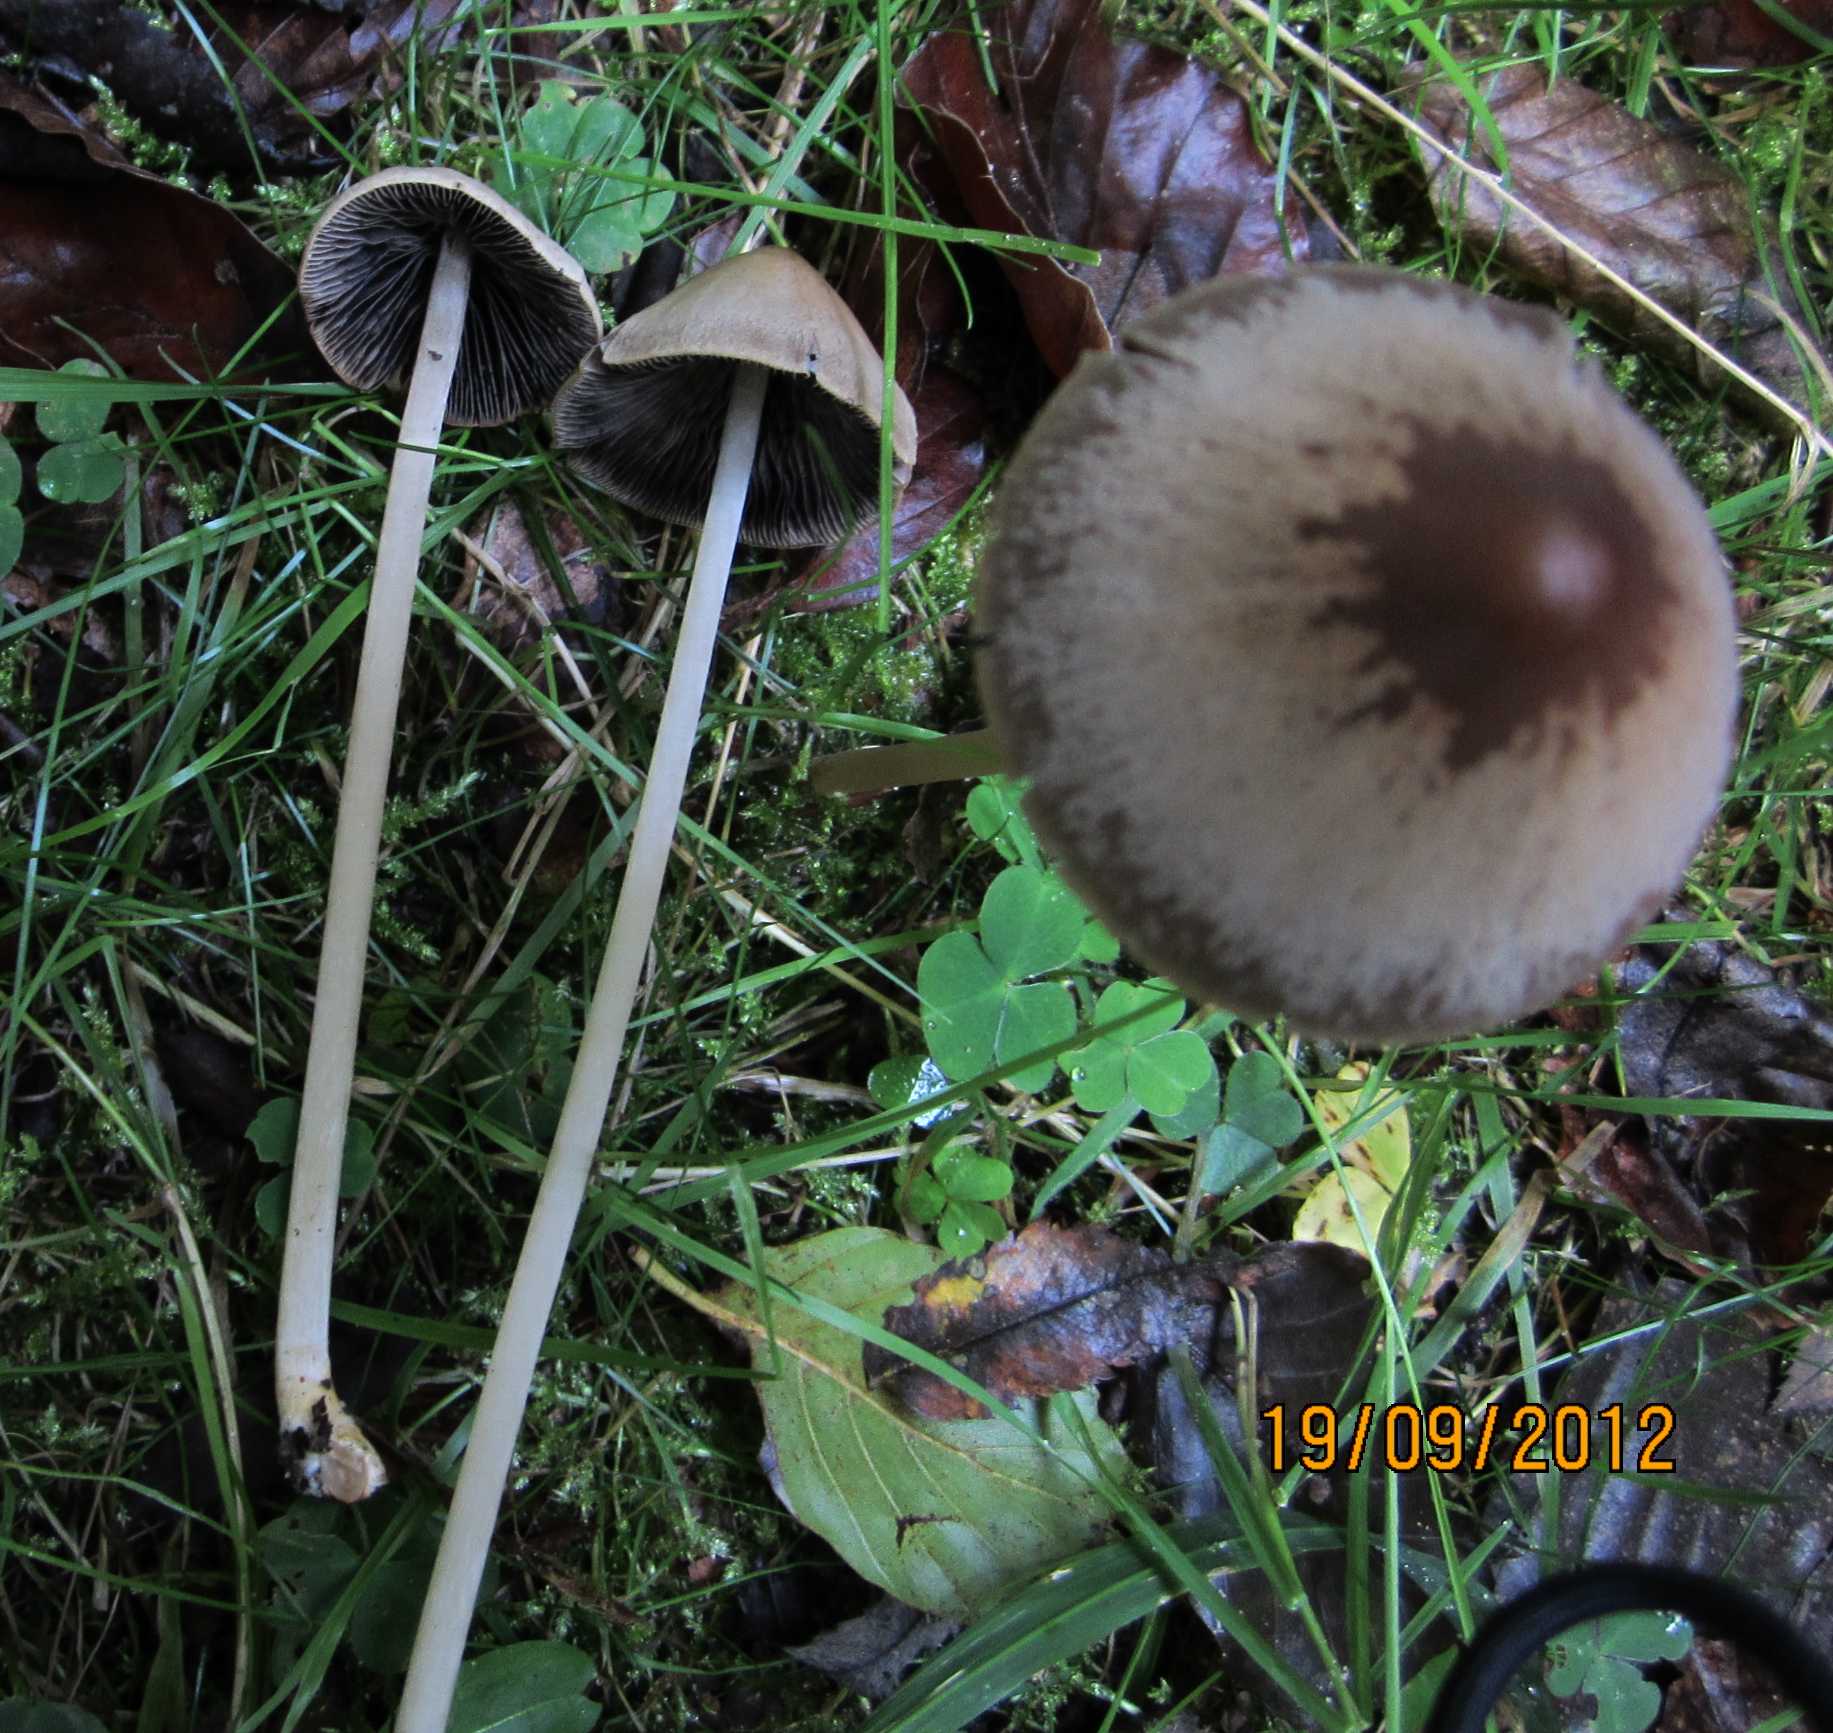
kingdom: Fungi
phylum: Basidiomycota
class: Agaricomycetes
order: Agaricales
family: Psathyrellaceae
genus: Parasola
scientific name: Parasola conopilea
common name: kegle-hjulhat
